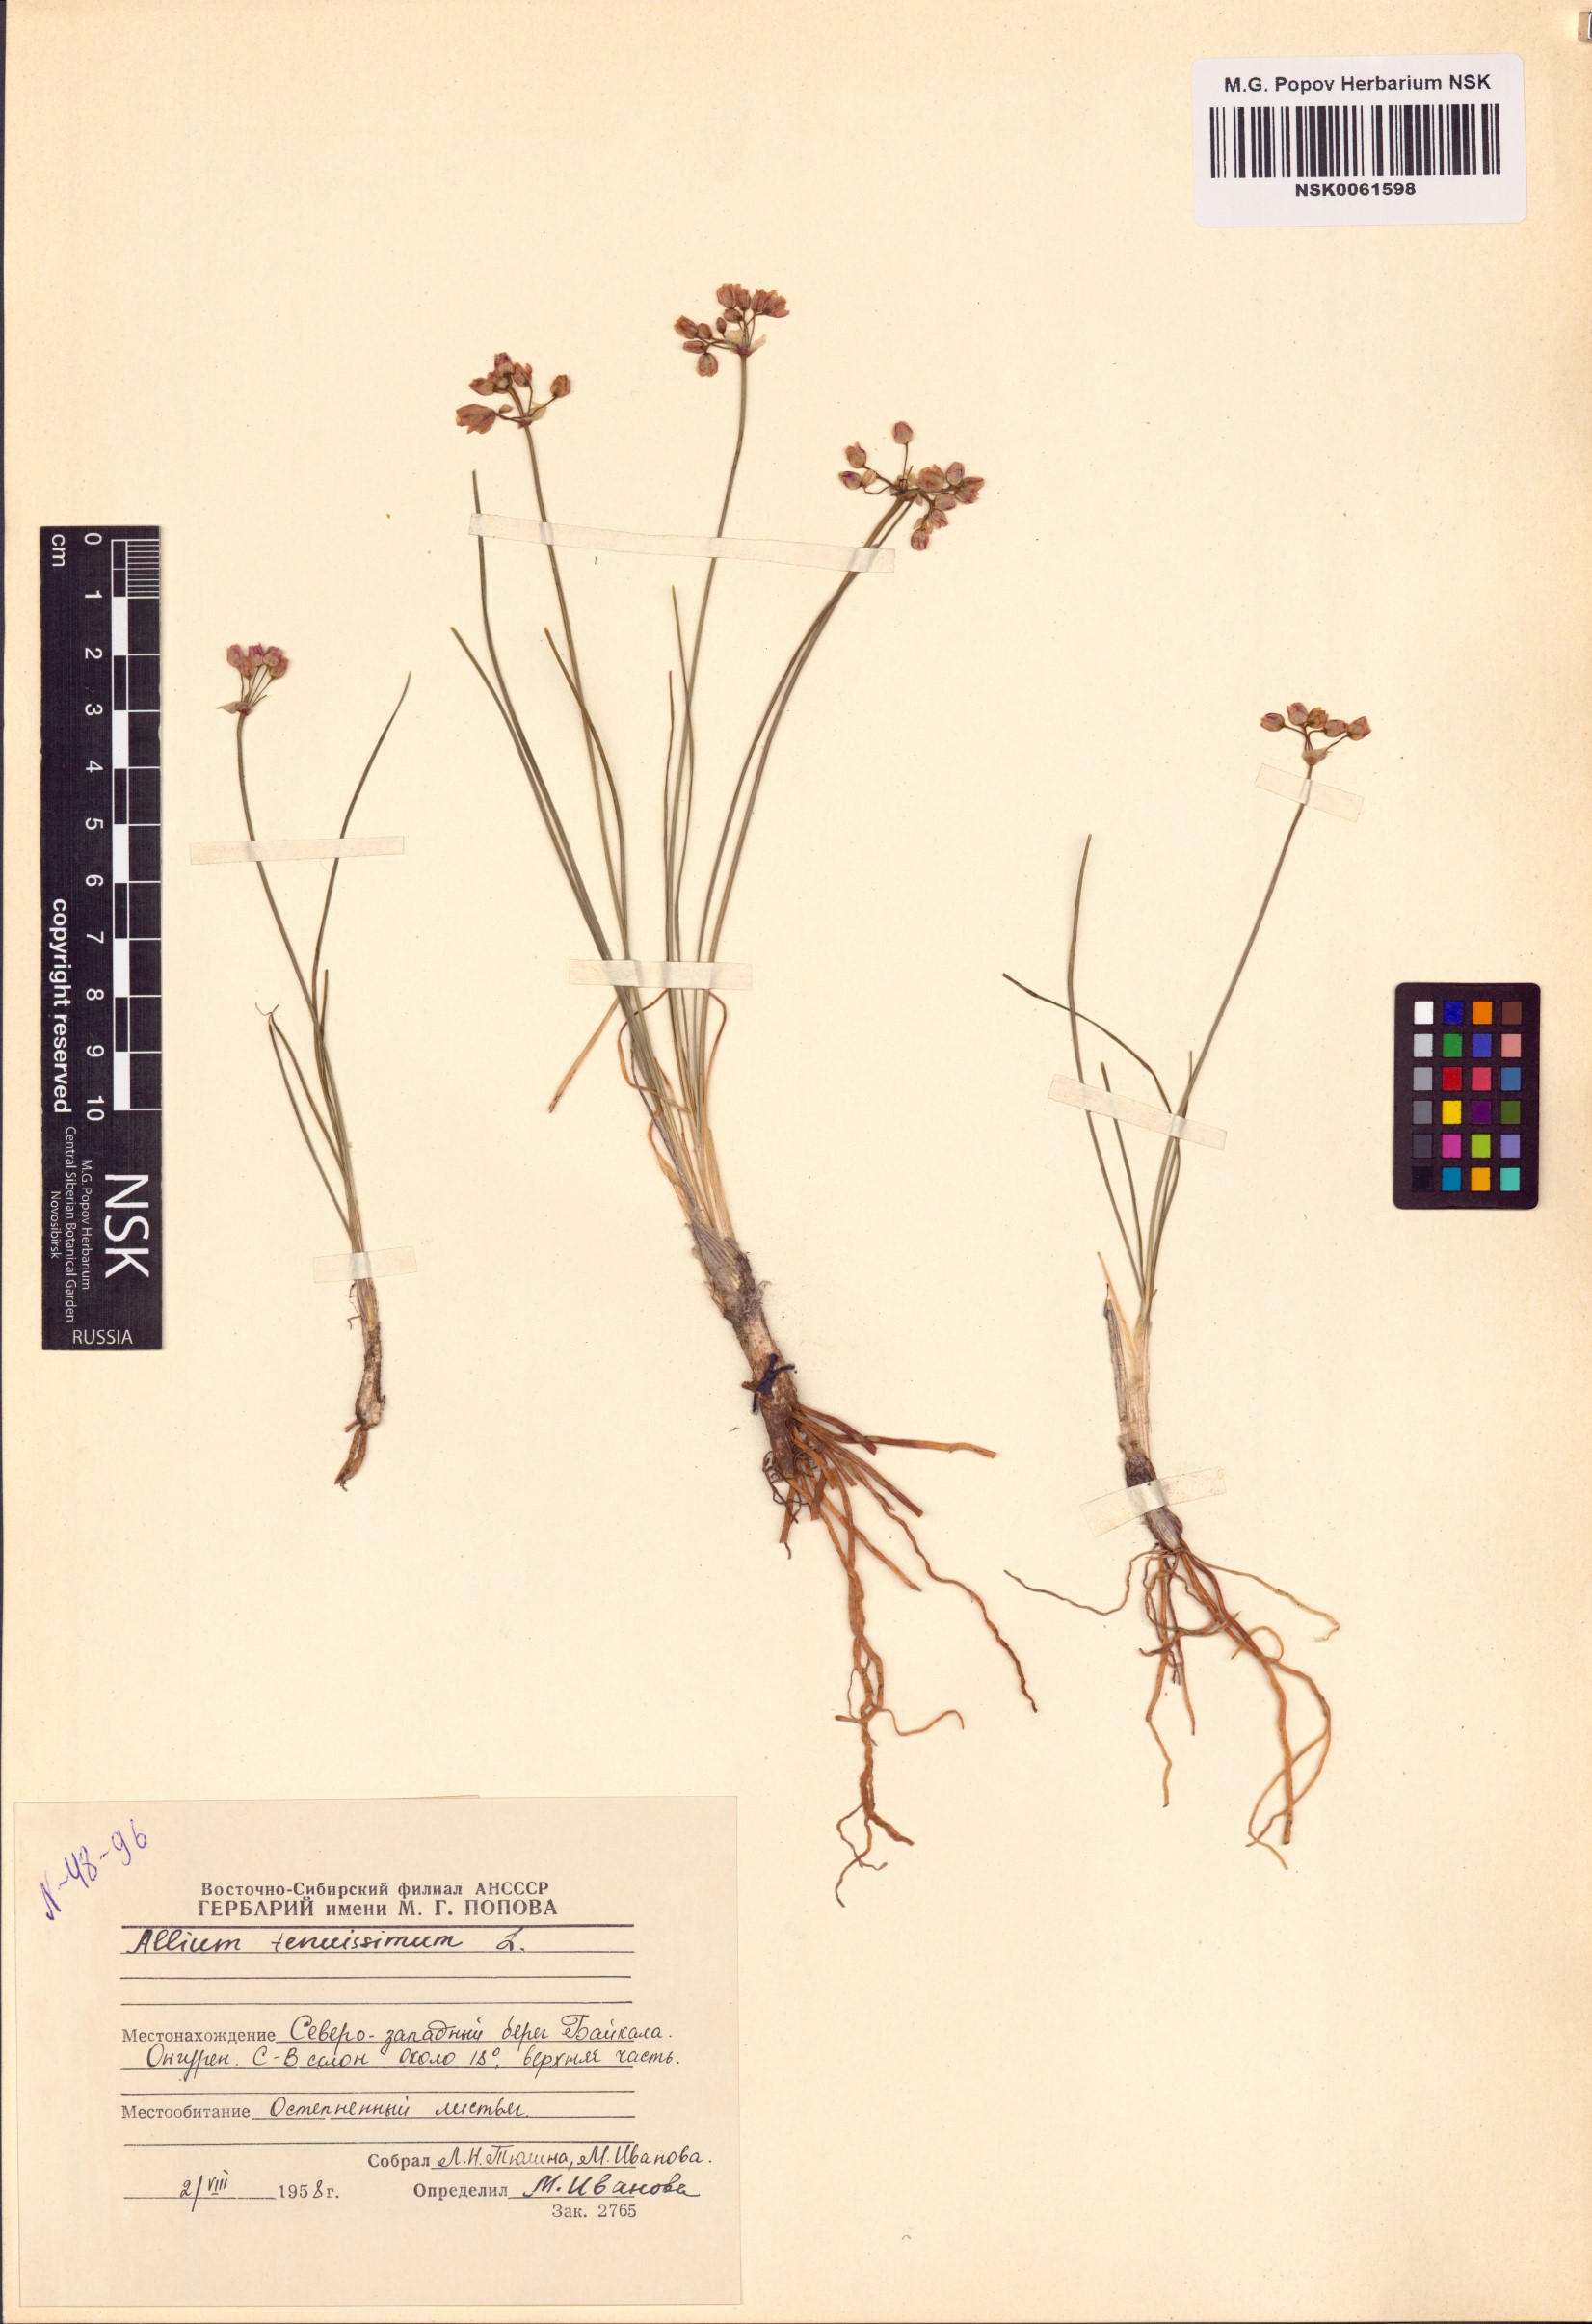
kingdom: Plantae
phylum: Tracheophyta
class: Liliopsida
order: Asparagales
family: Amaryllidaceae
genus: Allium
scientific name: Allium tenuissimum
